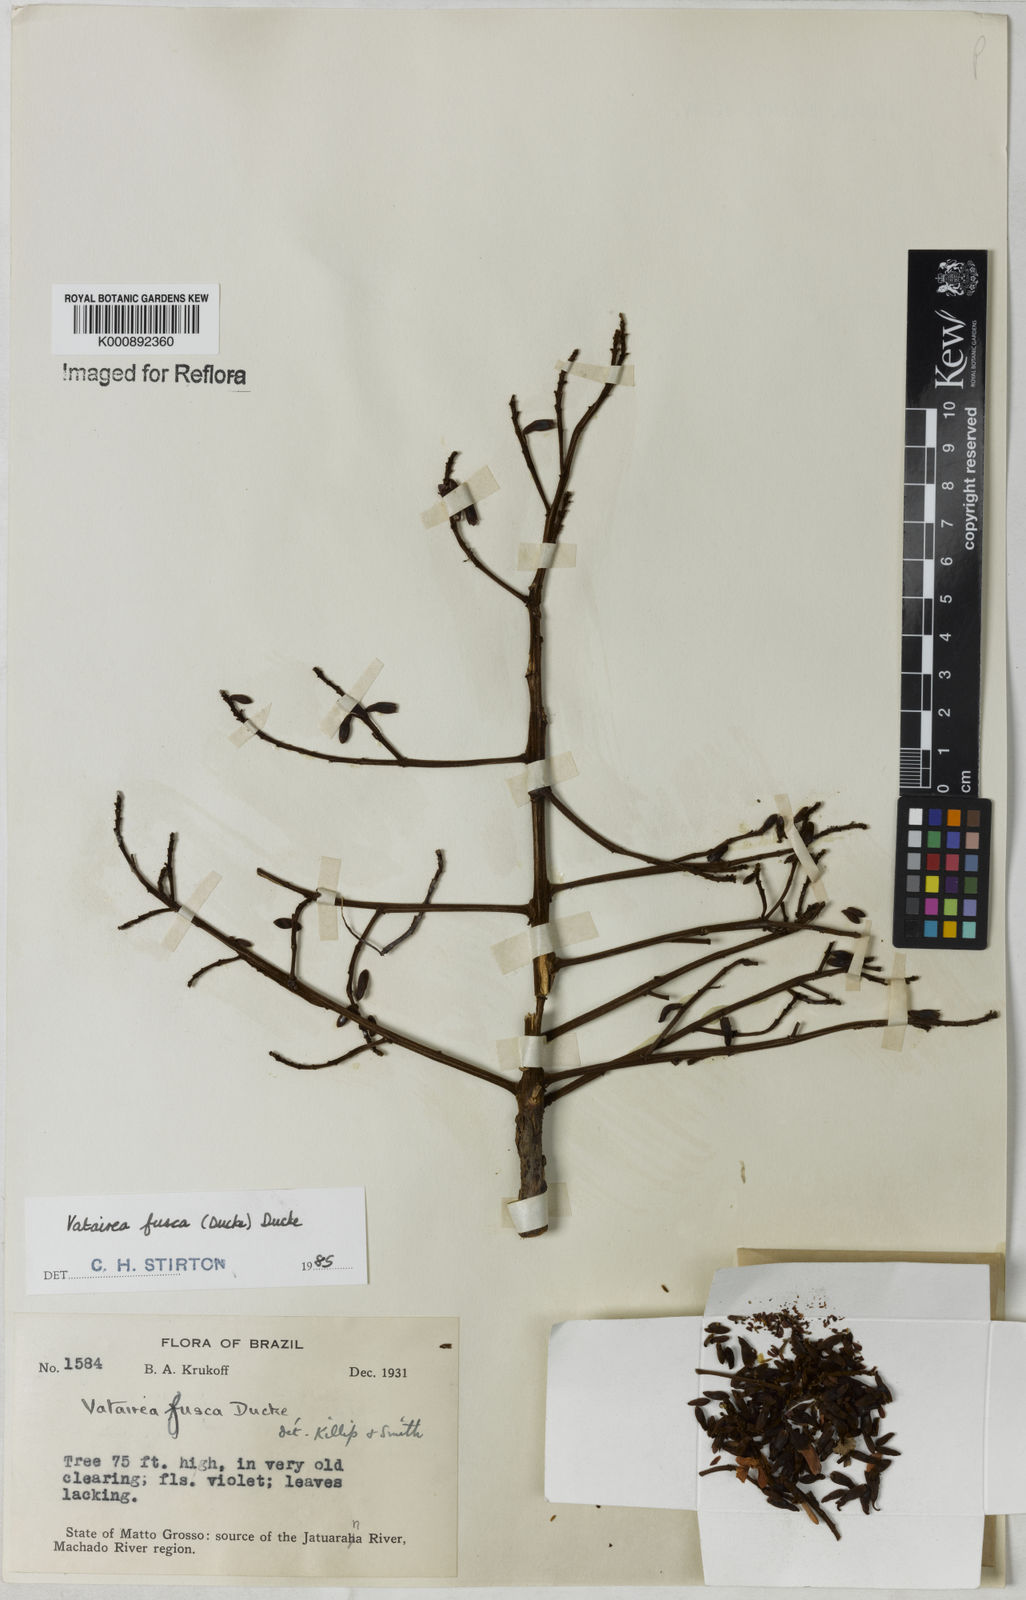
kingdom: Plantae
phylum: Tracheophyta
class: Magnoliopsida
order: Fabales
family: Fabaceae
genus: Vatairea
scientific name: Vatairea fusca
